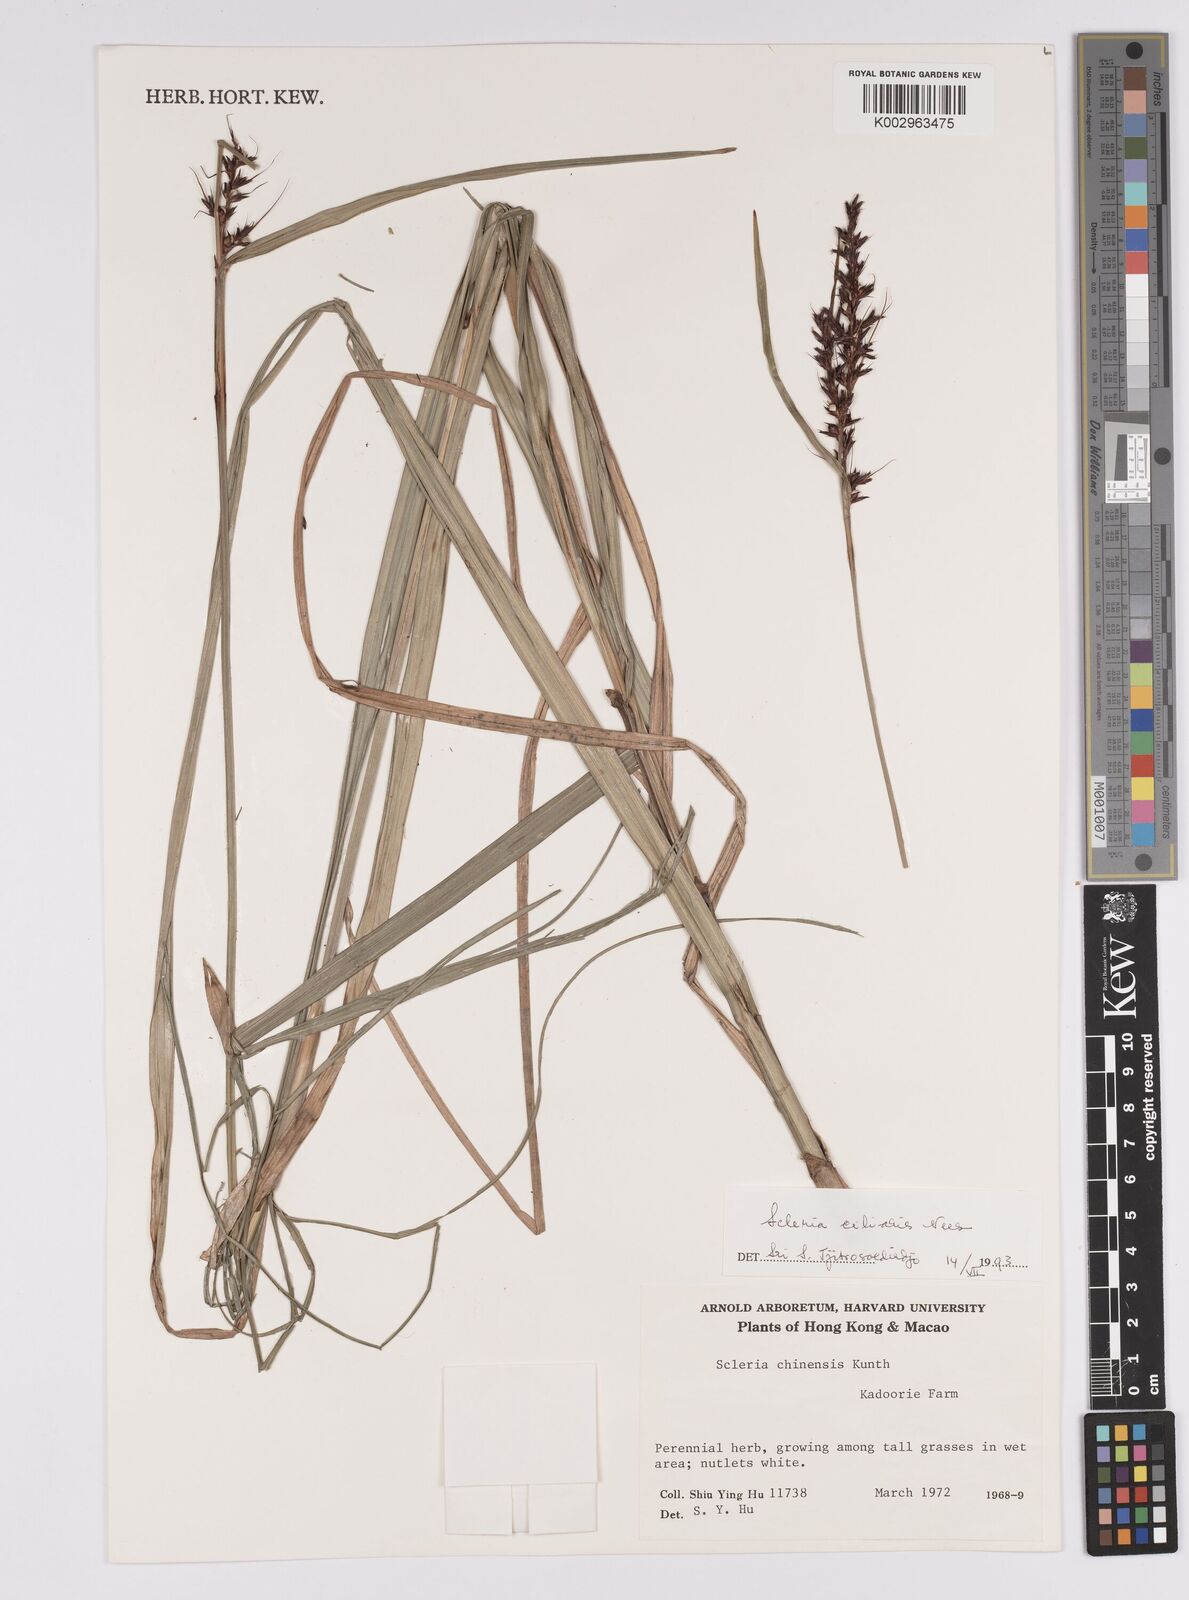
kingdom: Plantae
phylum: Tracheophyta
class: Liliopsida
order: Poales
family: Cyperaceae
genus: Scleria
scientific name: Scleria ciliaris
